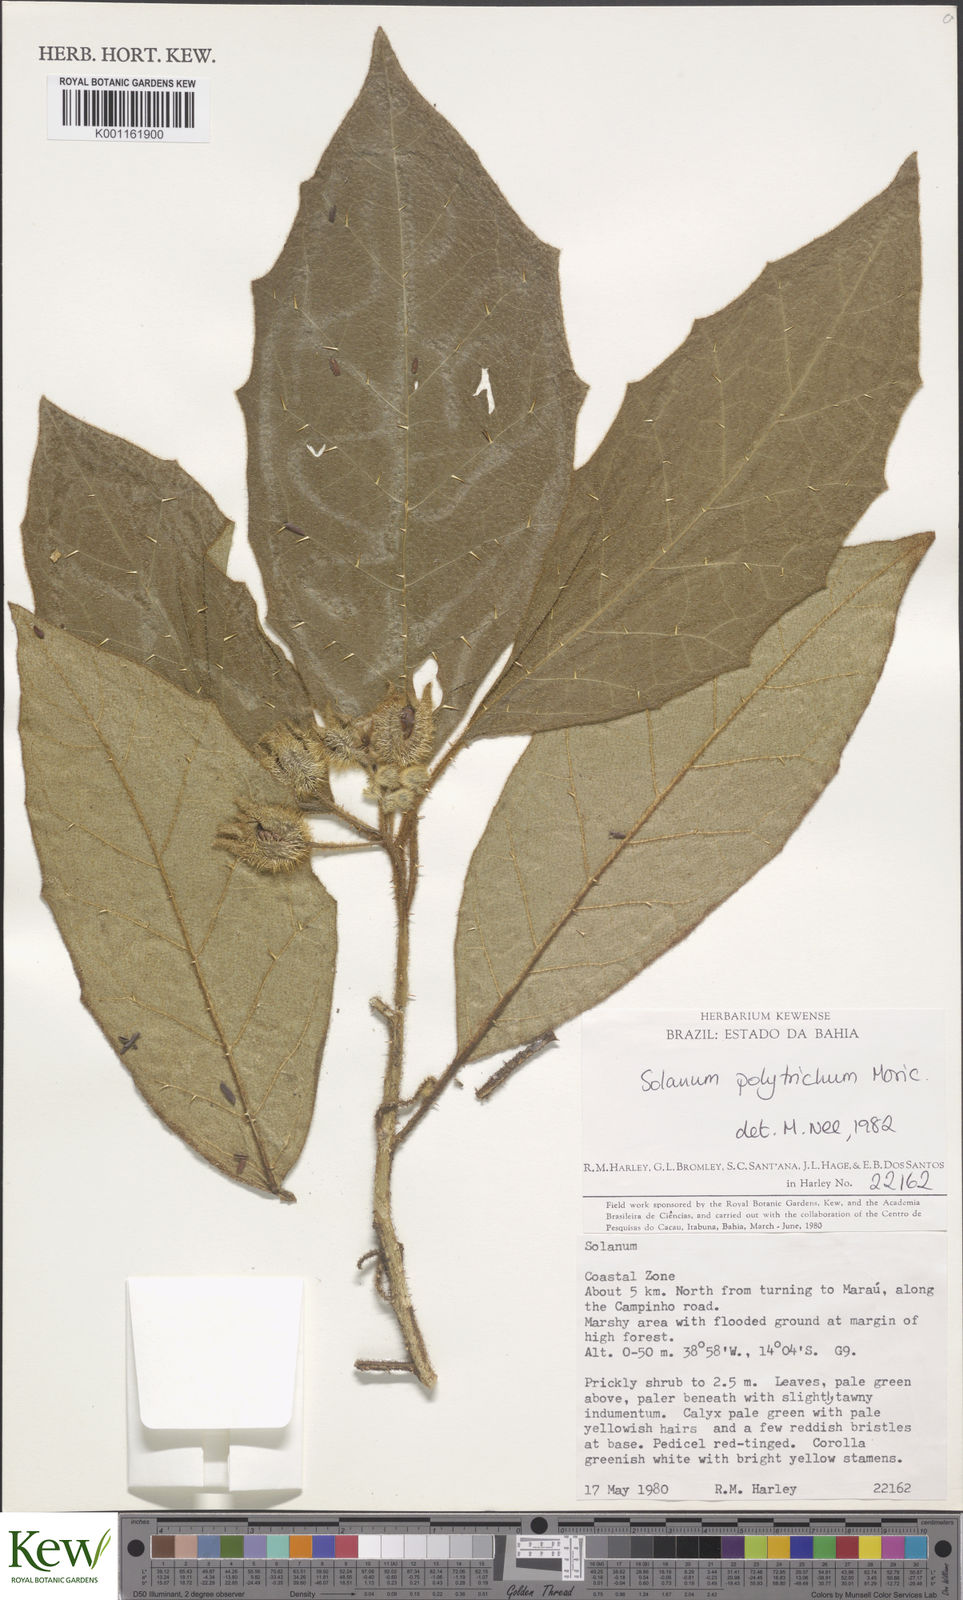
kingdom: Plantae
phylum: Tracheophyta
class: Magnoliopsida
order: Solanales
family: Solanaceae
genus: Solanum
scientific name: Solanum polytrichum
